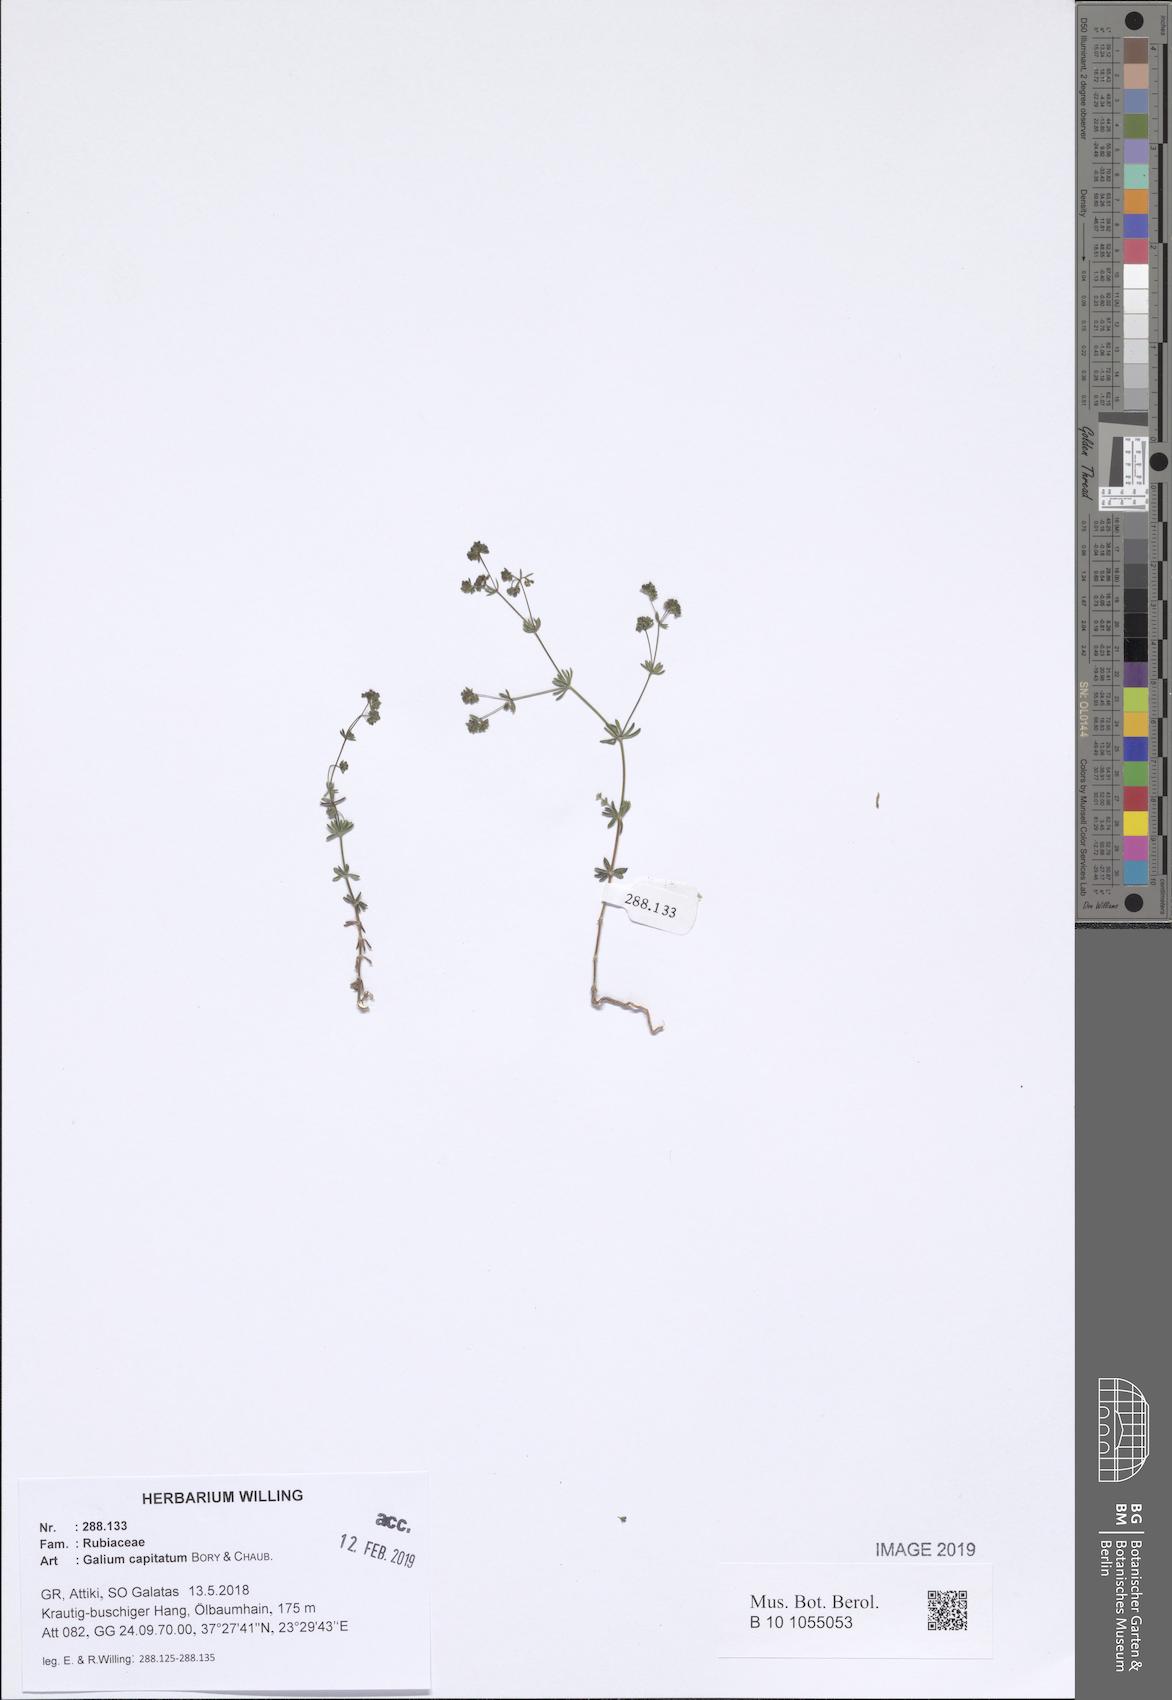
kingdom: Plantae
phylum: Tracheophyta
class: Magnoliopsida
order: Gentianales
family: Rubiaceae
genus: Galium
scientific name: Galium capitatum
